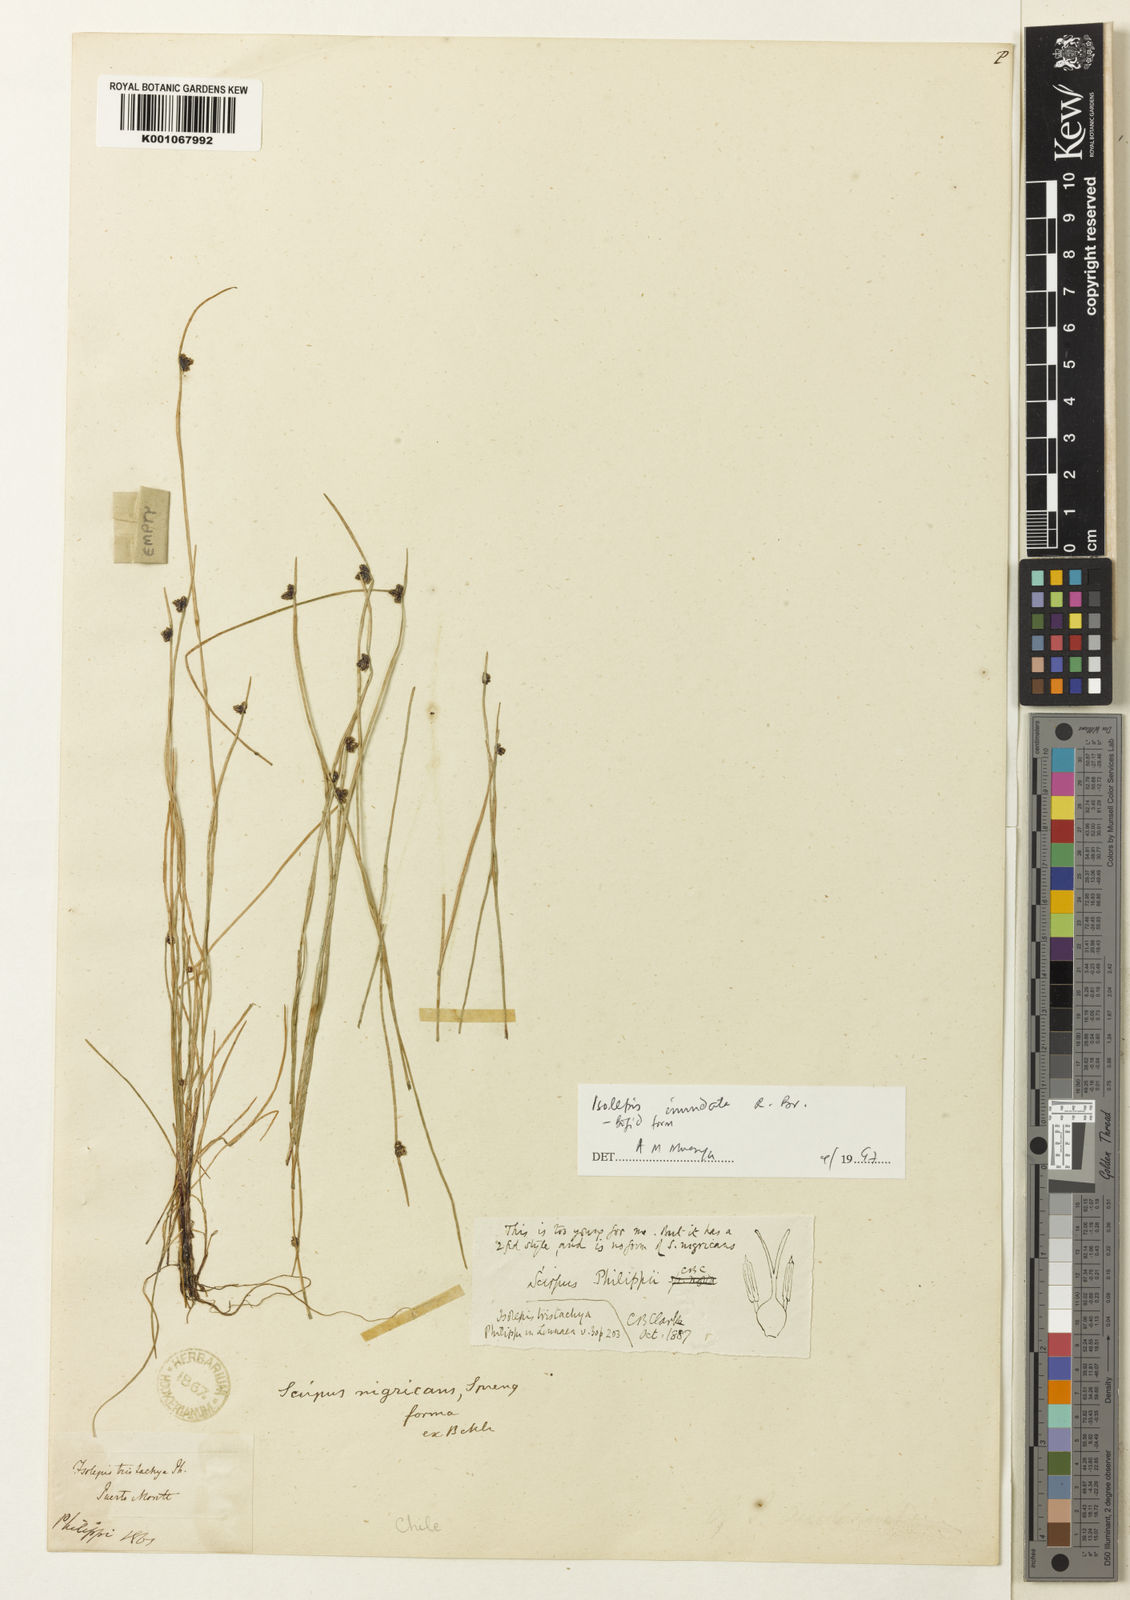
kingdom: Plantae
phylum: Tracheophyta
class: Liliopsida
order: Poales
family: Cyperaceae
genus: Isolepis
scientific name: Isolepis inundata
